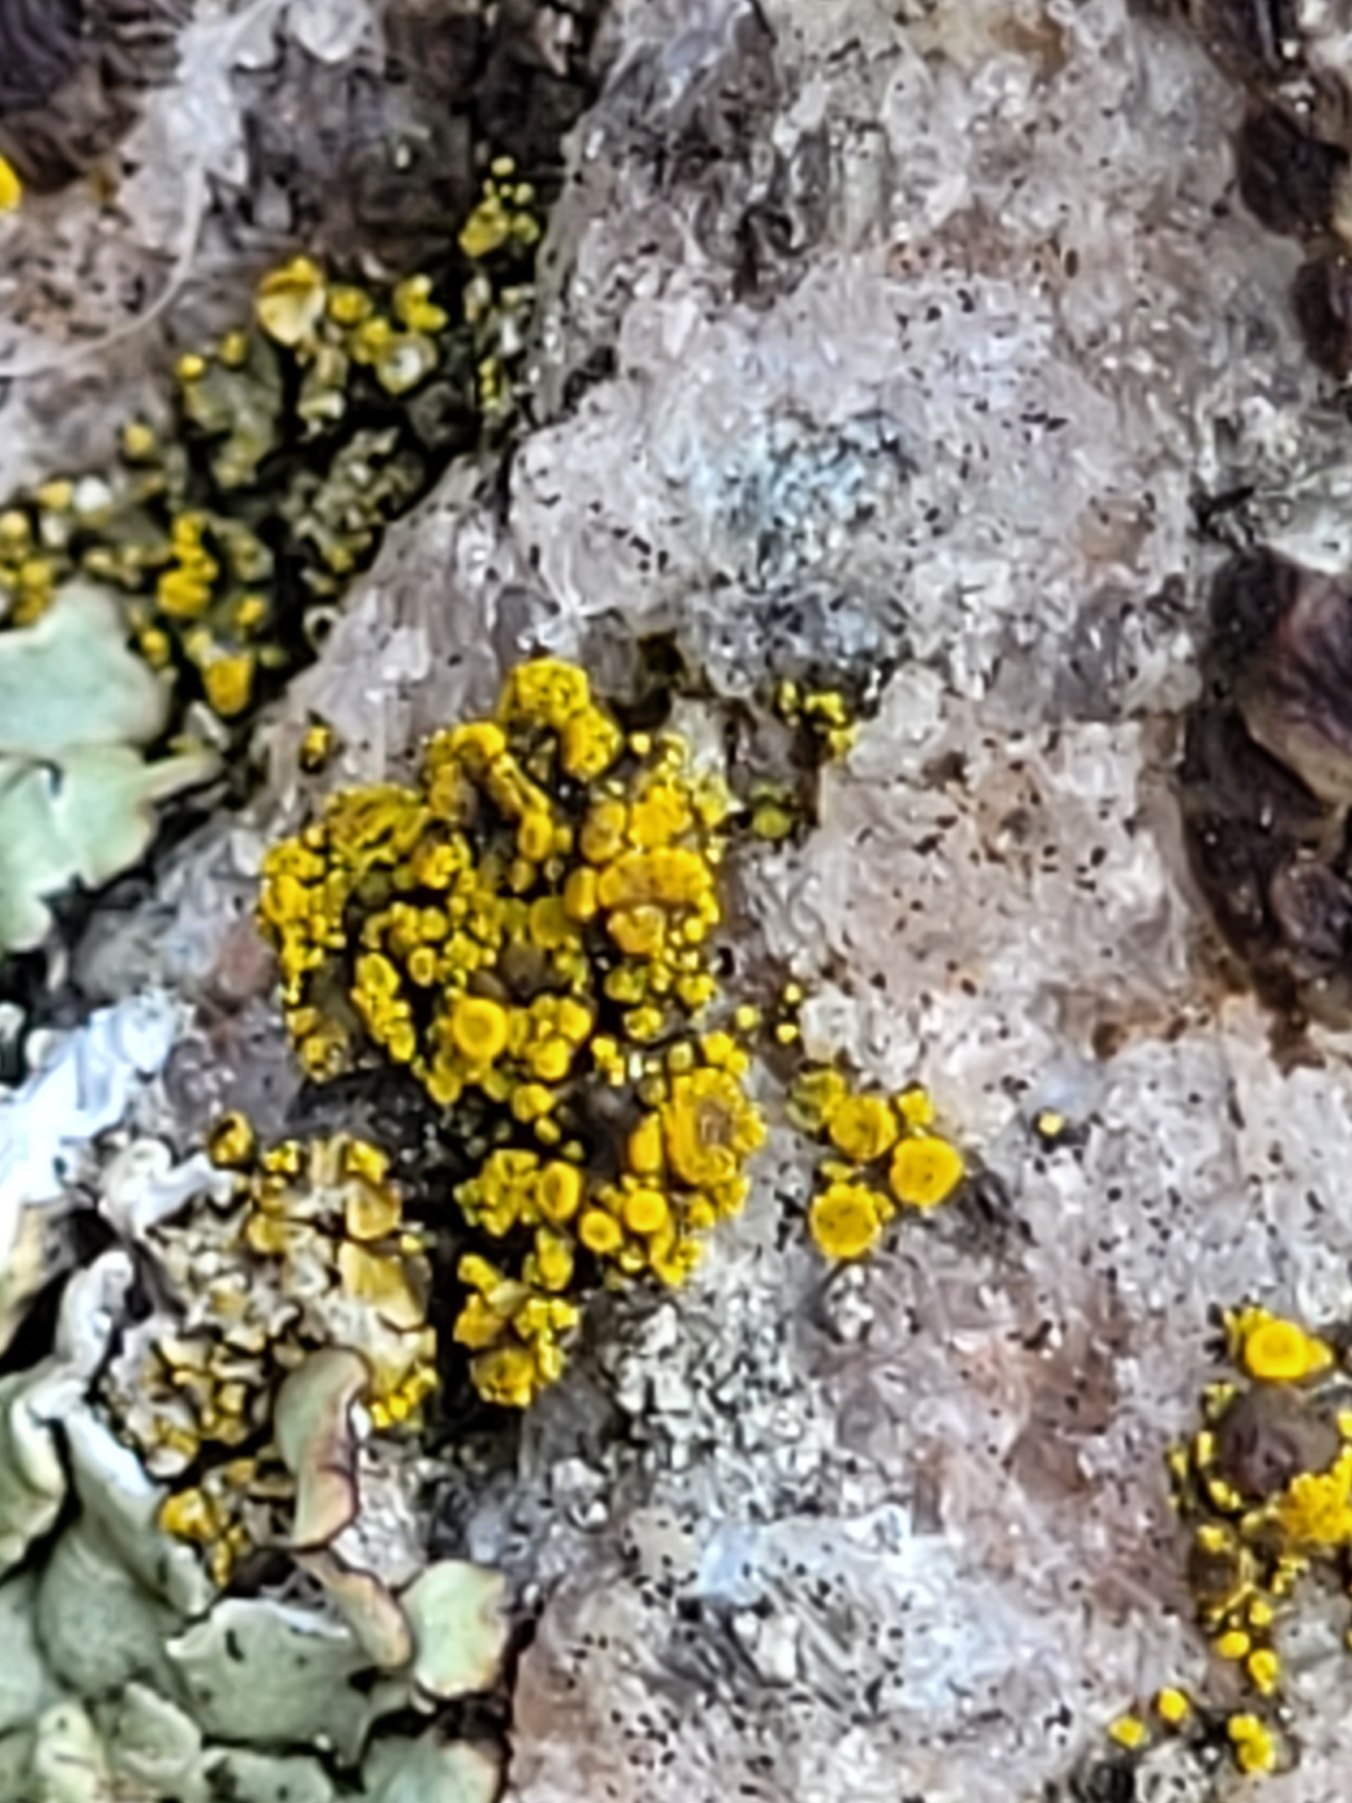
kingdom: Fungi
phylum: Ascomycota
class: Candelariomycetes
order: Candelariales
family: Candelariaceae
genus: Candelariella
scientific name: Candelariella vitellina
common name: Almindelig æggeblommelav
